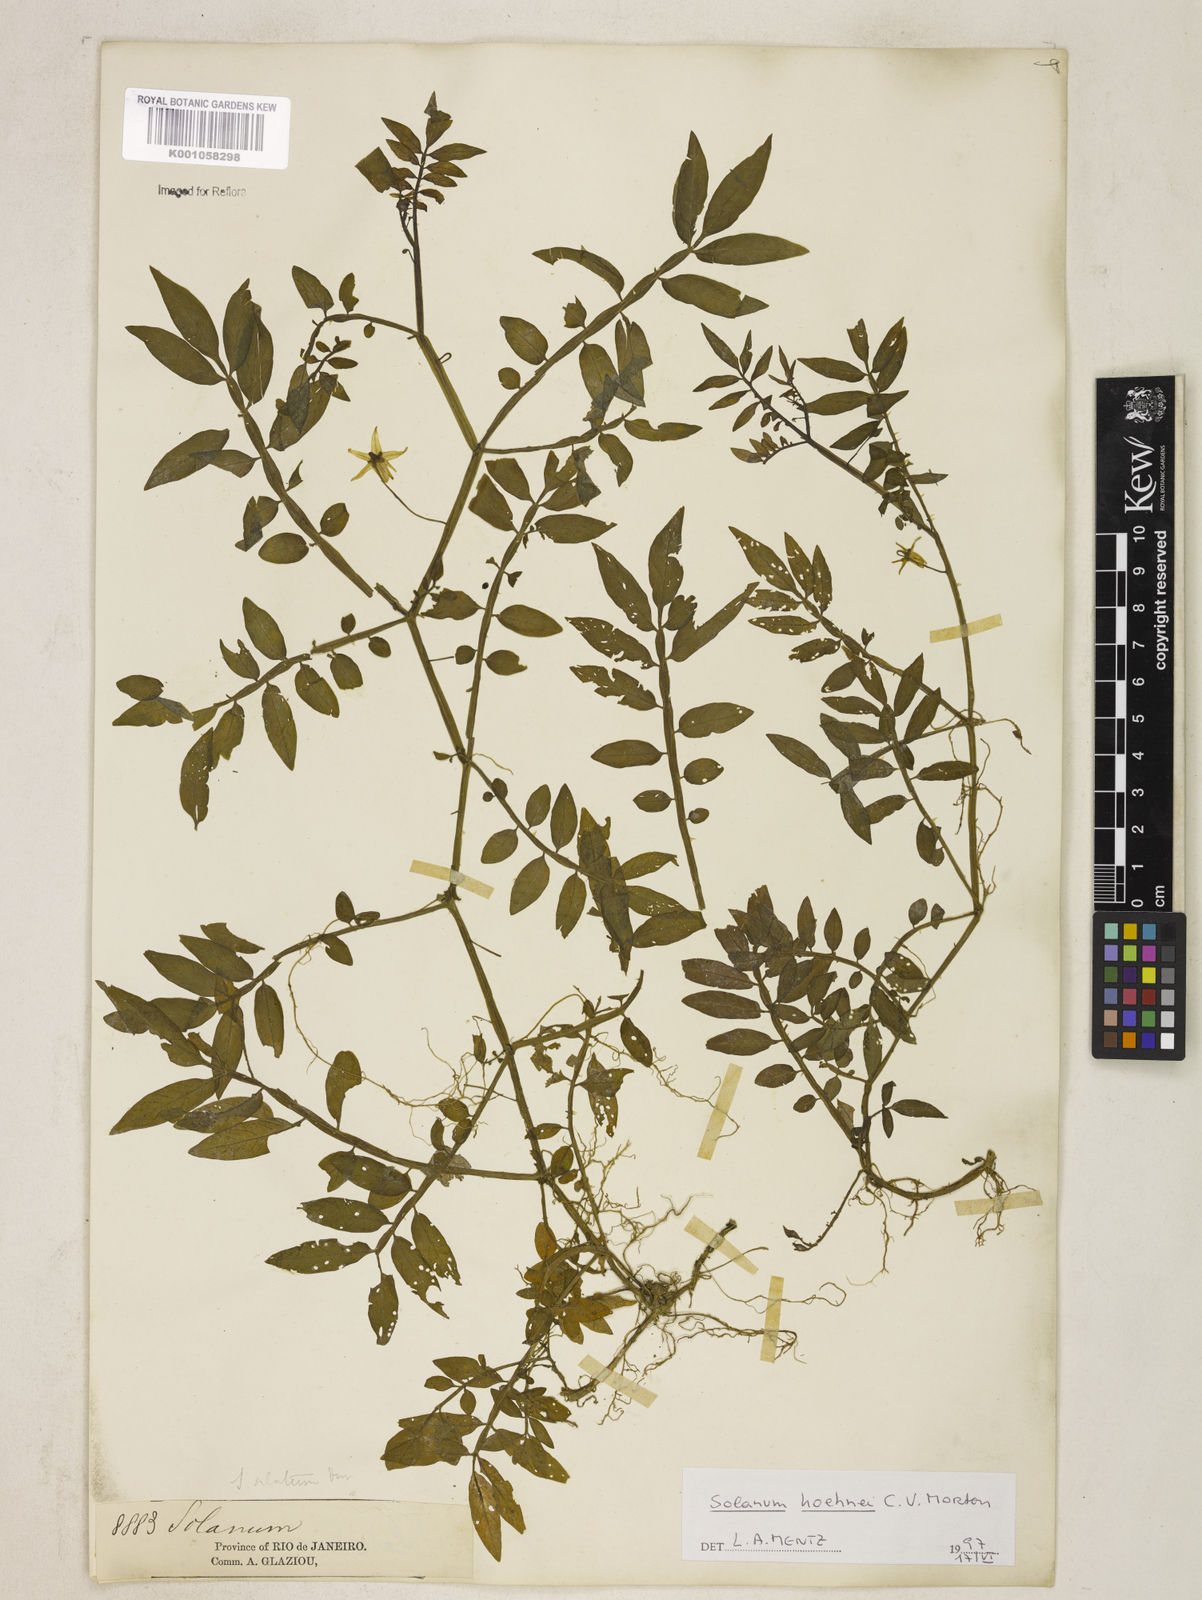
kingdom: Plantae
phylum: Tracheophyta
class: Magnoliopsida
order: Solanales
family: Solanaceae
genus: Solanum
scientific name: Solanum hoehnei
